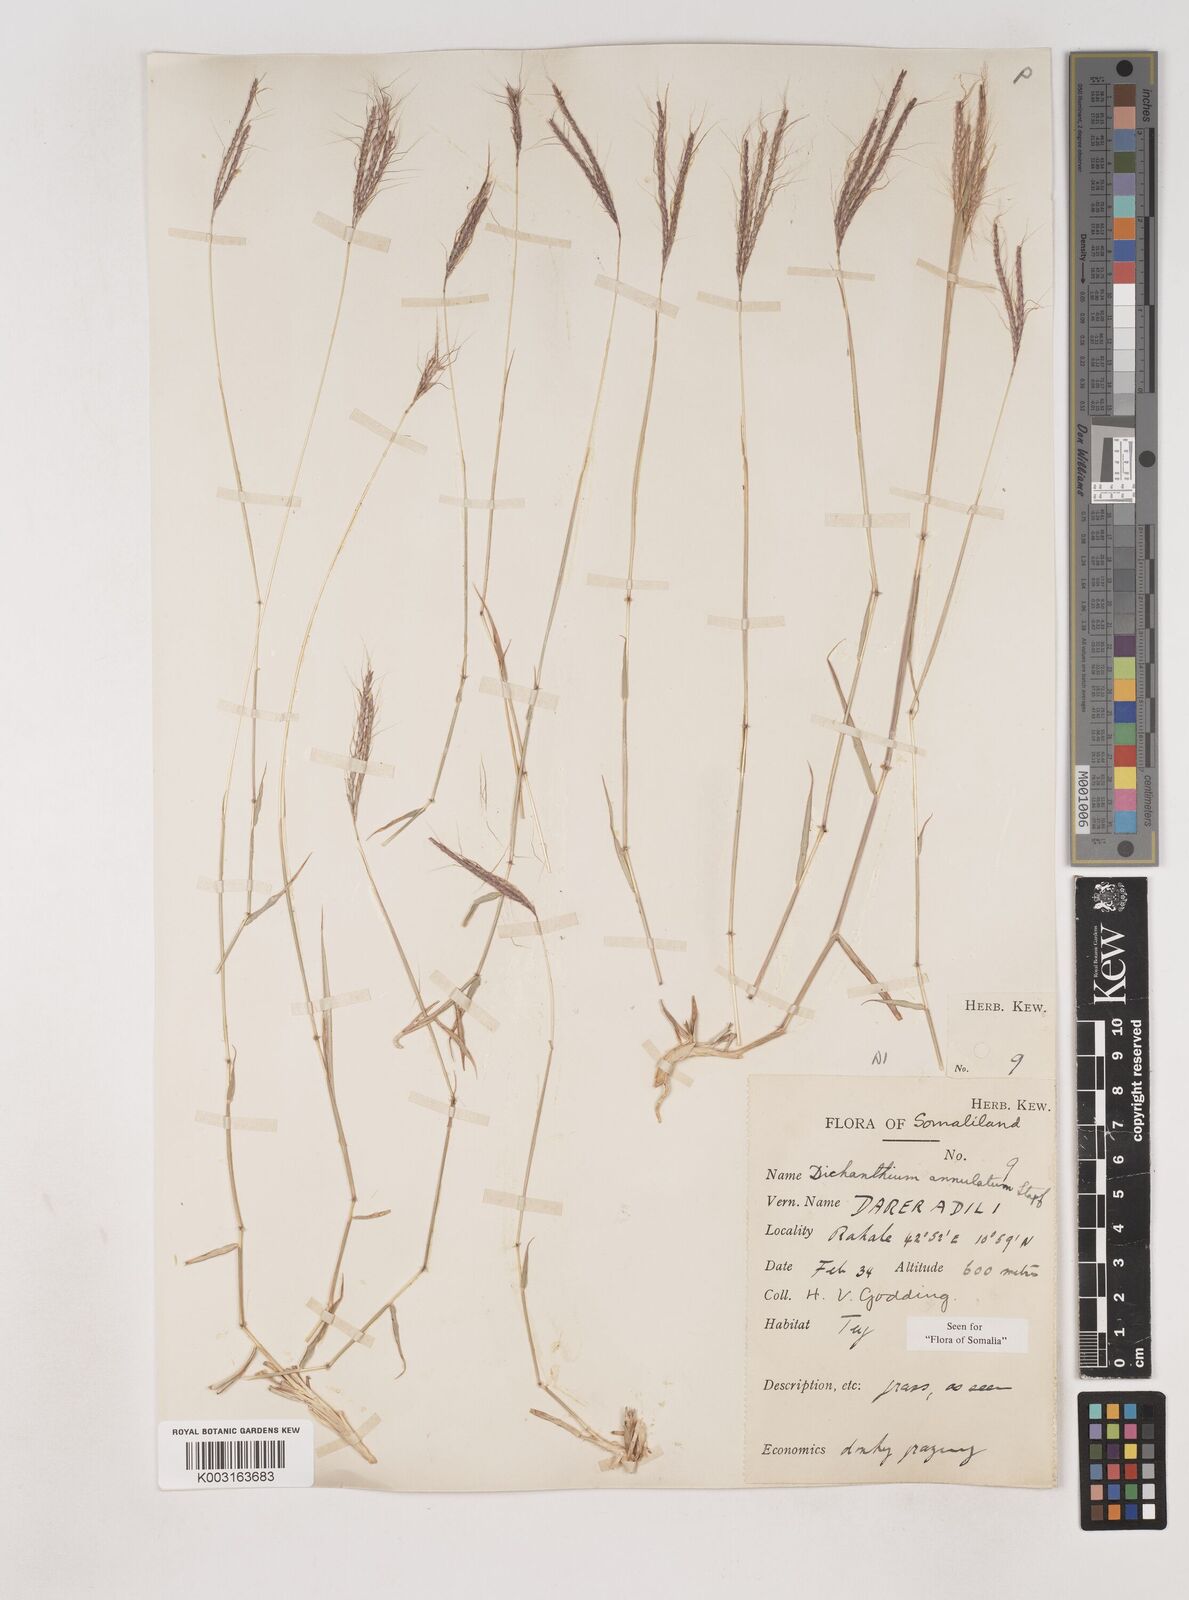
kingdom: Plantae
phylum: Tracheophyta
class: Liliopsida
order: Poales
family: Poaceae
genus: Dichanthium
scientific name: Dichanthium annulatum
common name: Kleberg's bluestem
